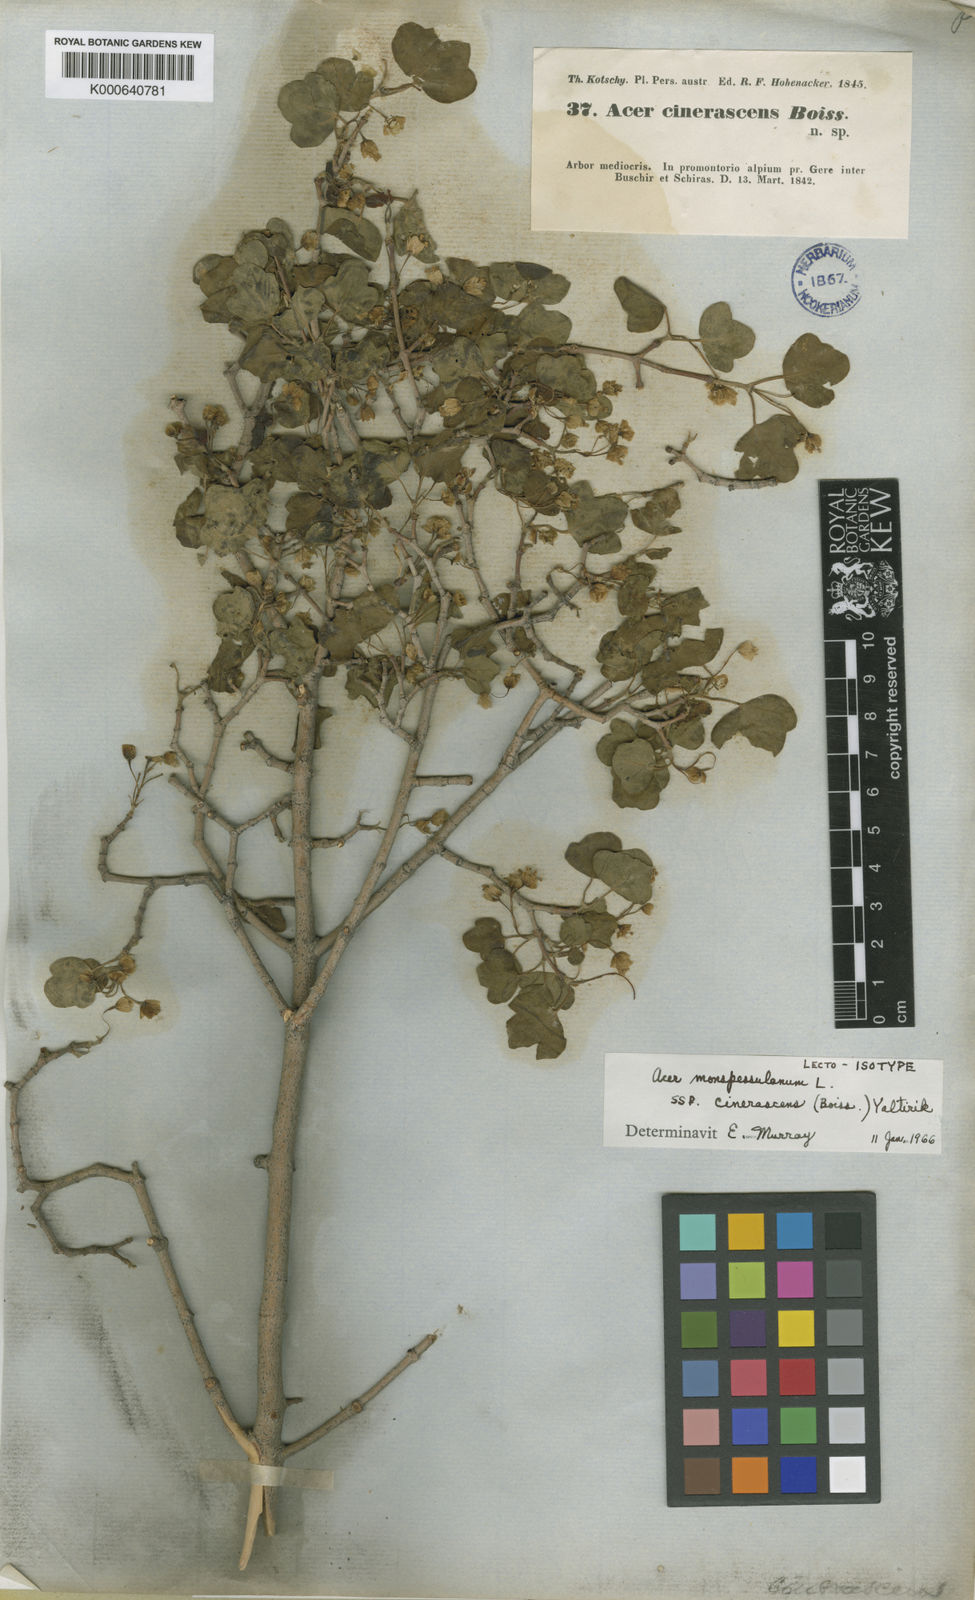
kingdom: Plantae
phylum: Tracheophyta
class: Magnoliopsida
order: Sapindales
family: Sapindaceae
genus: Acer
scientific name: Acer monspessulanum
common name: Montpellier maple
